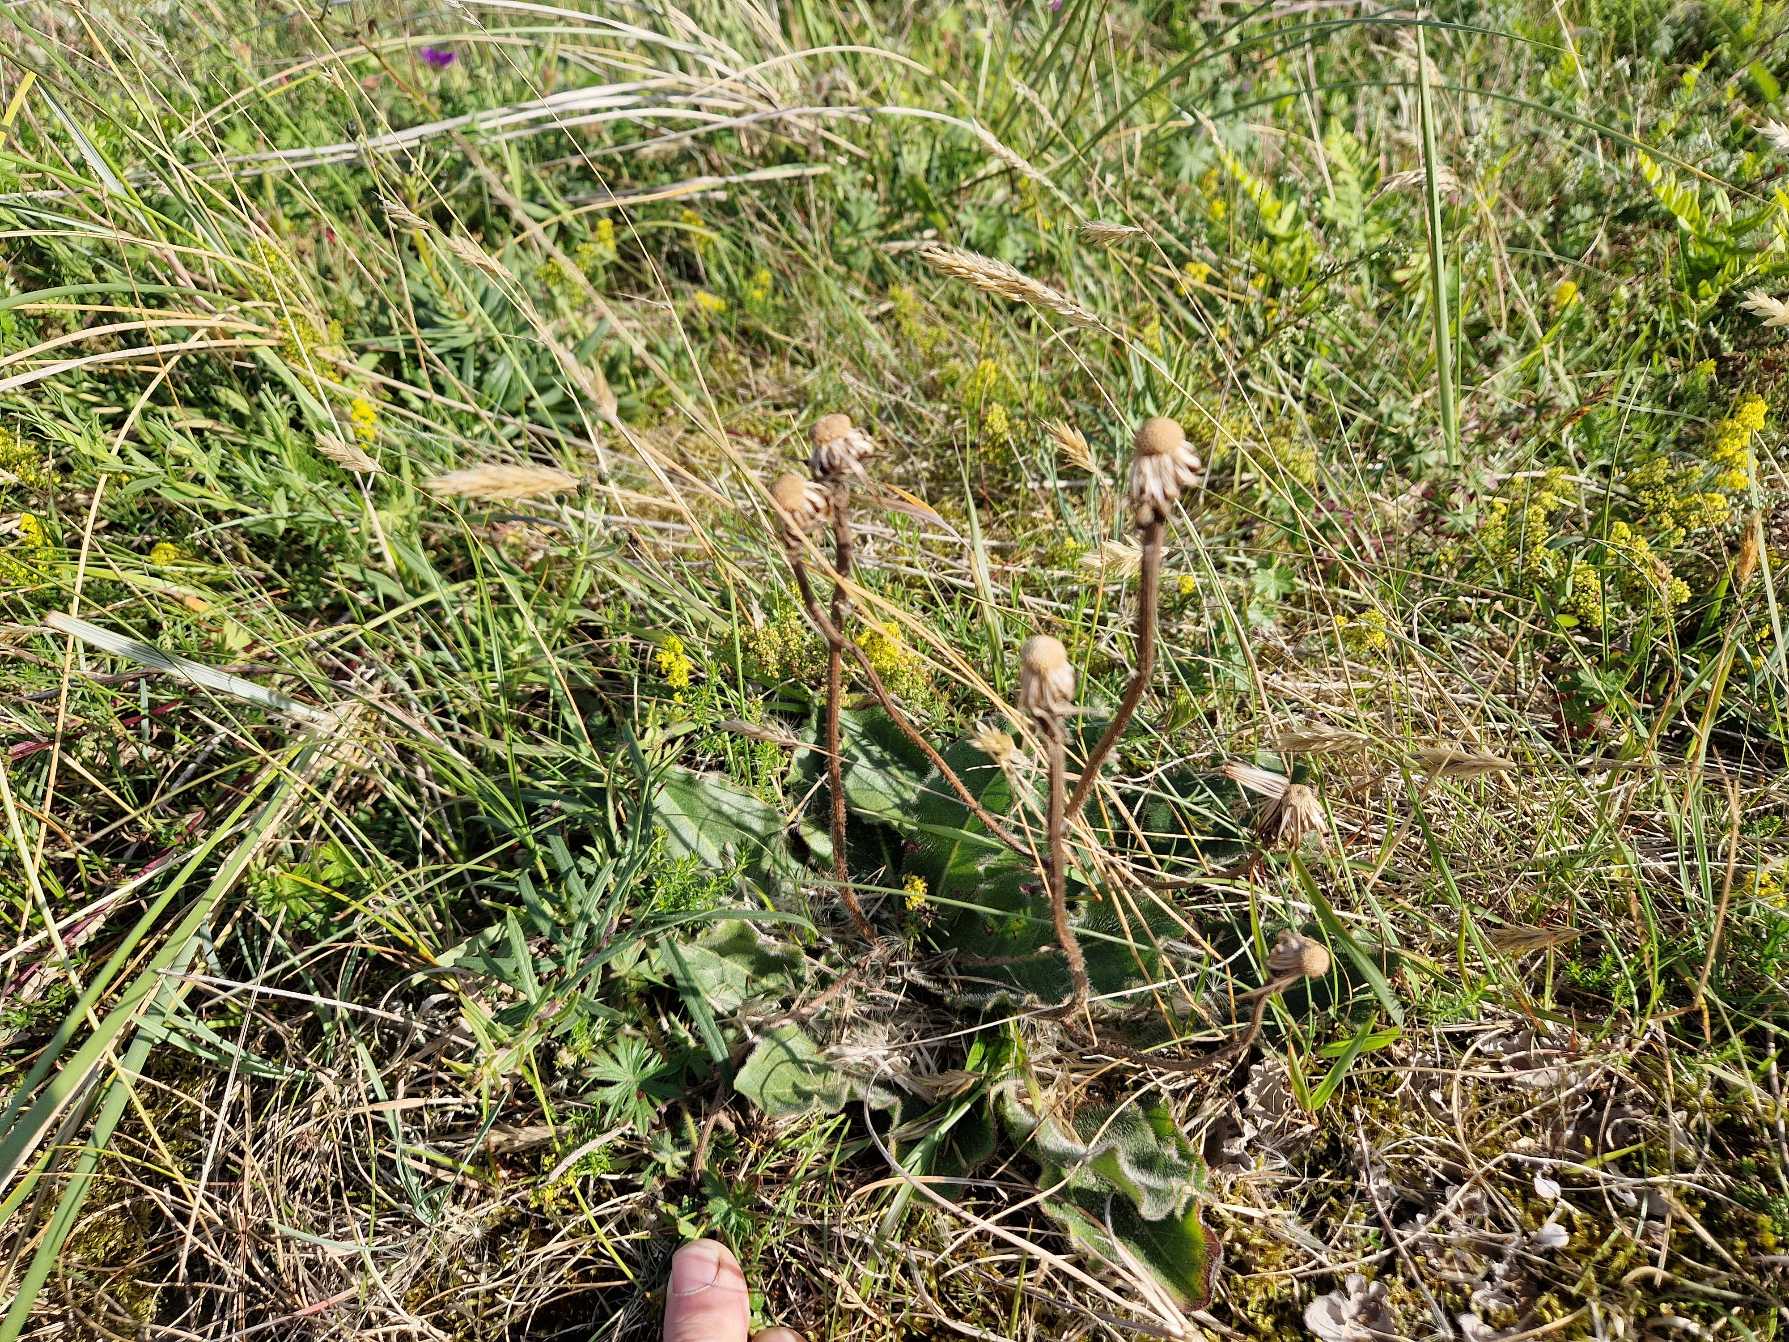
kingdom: Plantae
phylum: Tracheophyta
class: Magnoliopsida
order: Asterales
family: Asteraceae
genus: Trommsdorffia
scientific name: Trommsdorffia maculata
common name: Plettet kongepen
